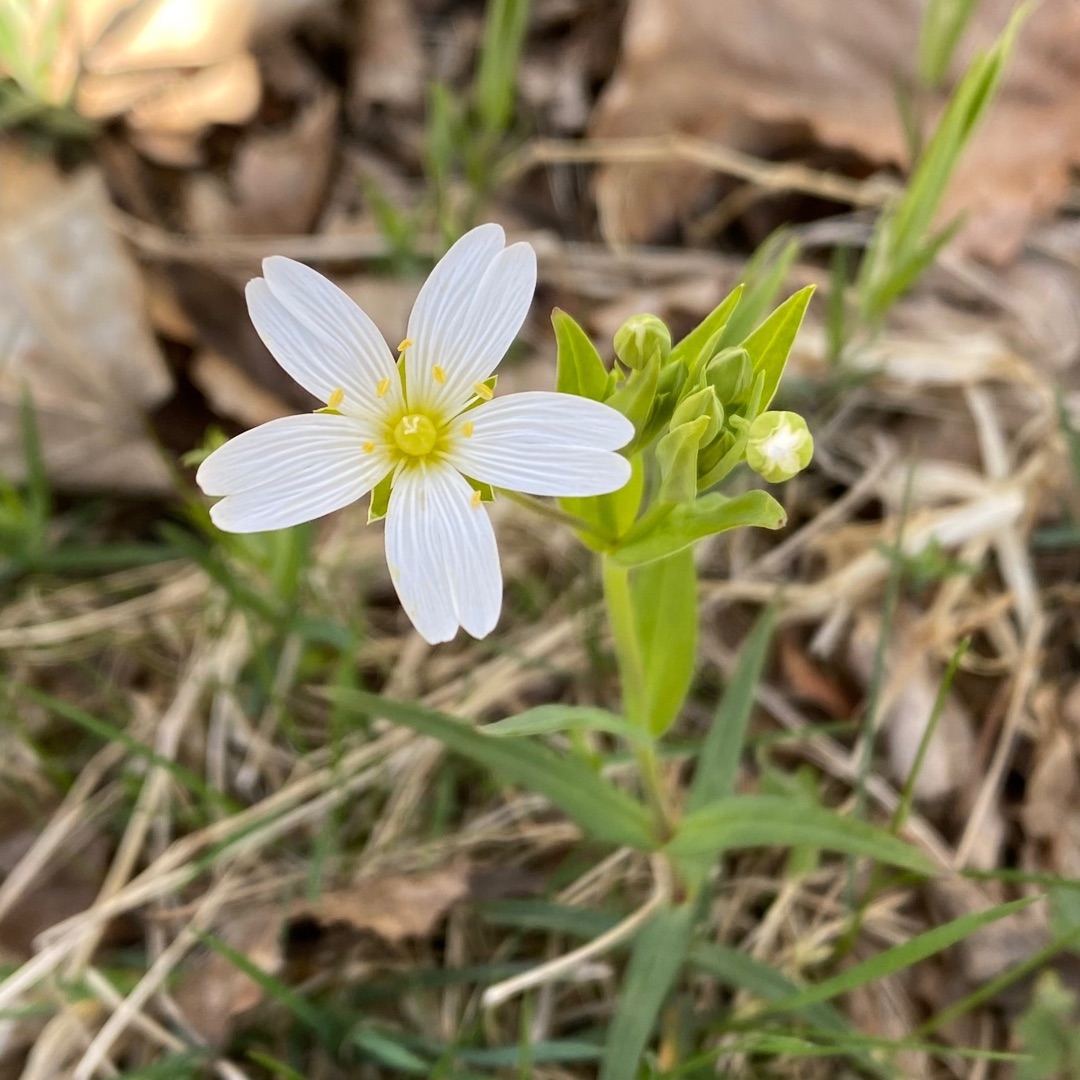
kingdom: Plantae
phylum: Tracheophyta
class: Magnoliopsida
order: Caryophyllales
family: Caryophyllaceae
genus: Rabelera
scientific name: Rabelera holostea
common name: Stor fladstjerne
